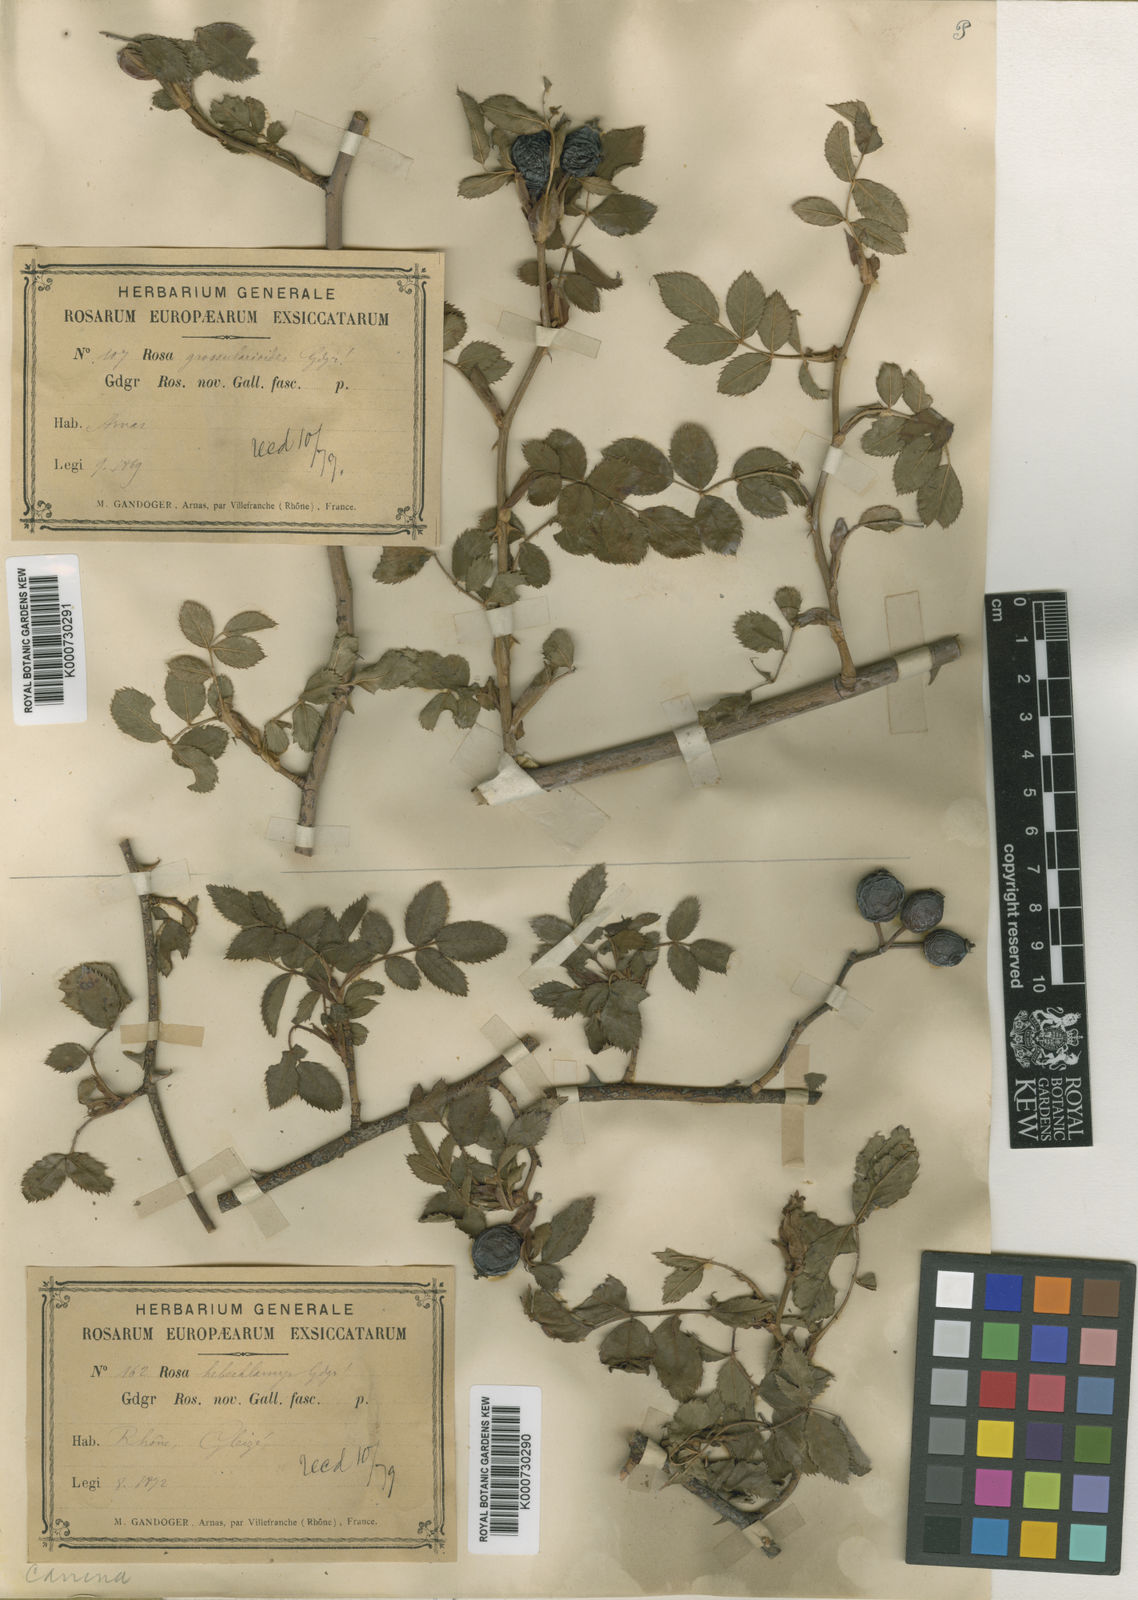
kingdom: Plantae
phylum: Tracheophyta
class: Magnoliopsida
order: Rosales
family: Rosaceae
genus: Rosa
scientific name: Rosa canina
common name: Dog rose
